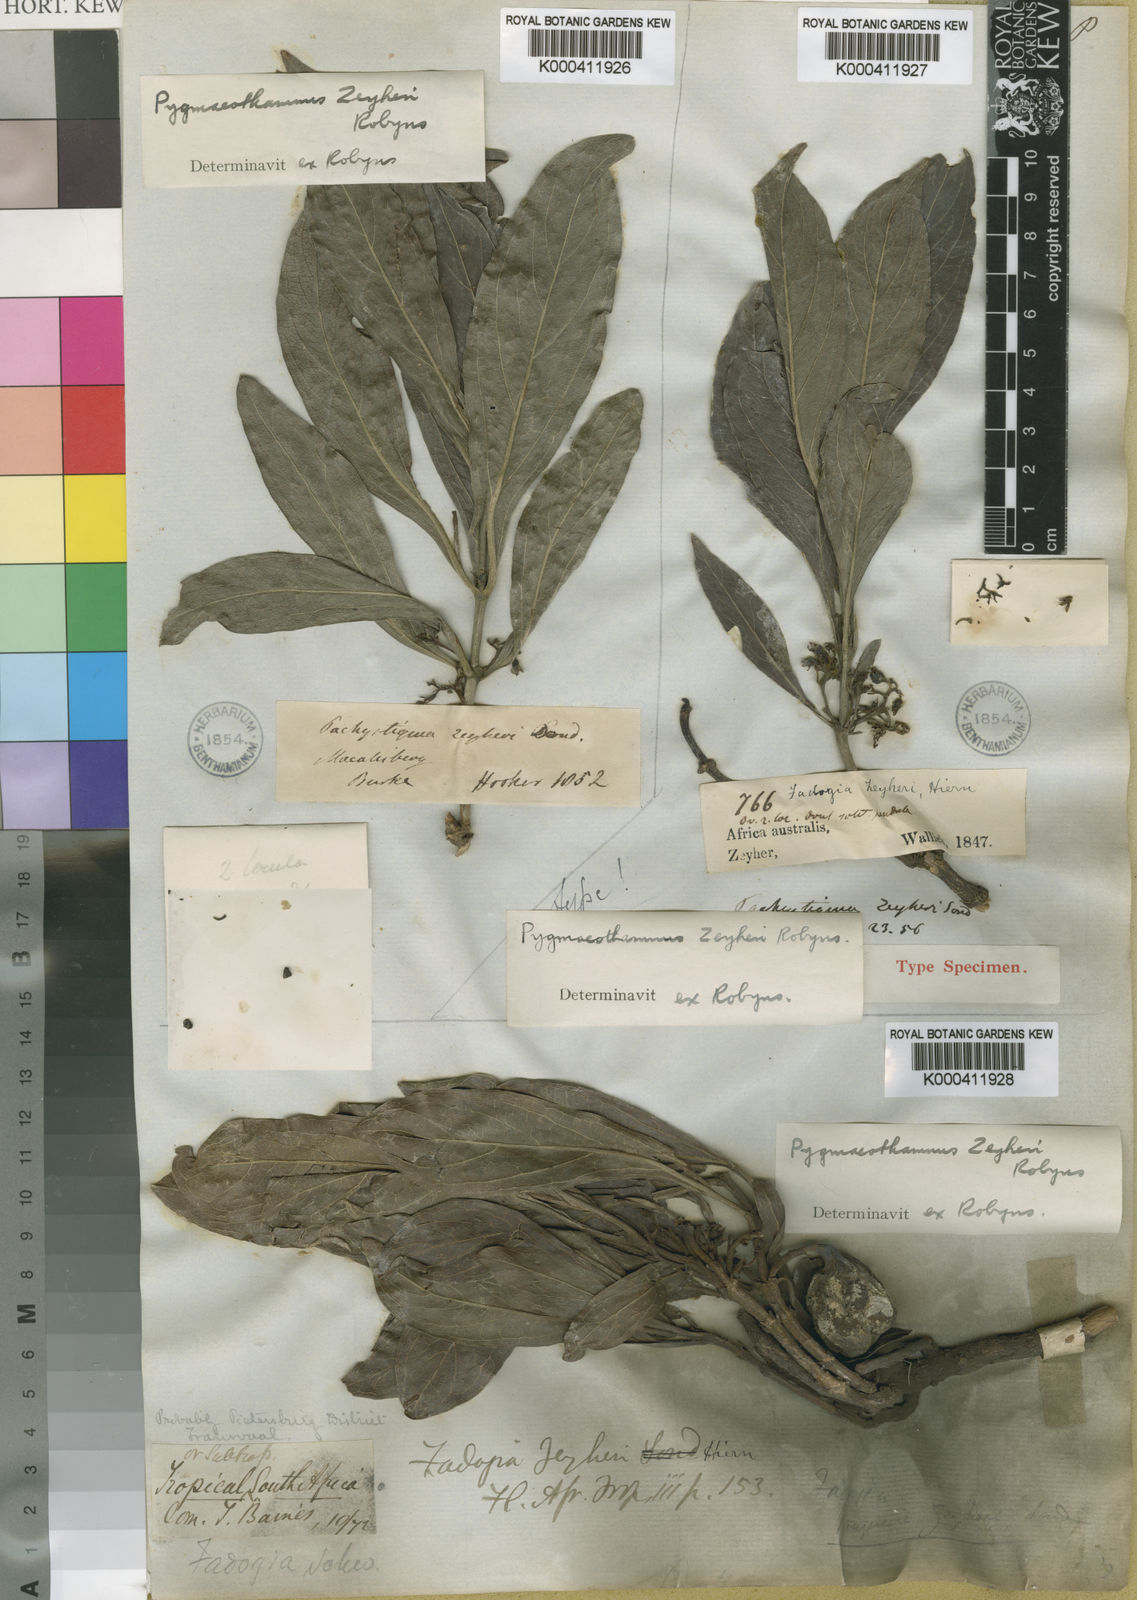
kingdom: Plantae
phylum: Tracheophyta
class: Magnoliopsida
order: Gentianales
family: Rubiaceae
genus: Pygmaeothamnus
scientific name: Pygmaeothamnus zeyheri
